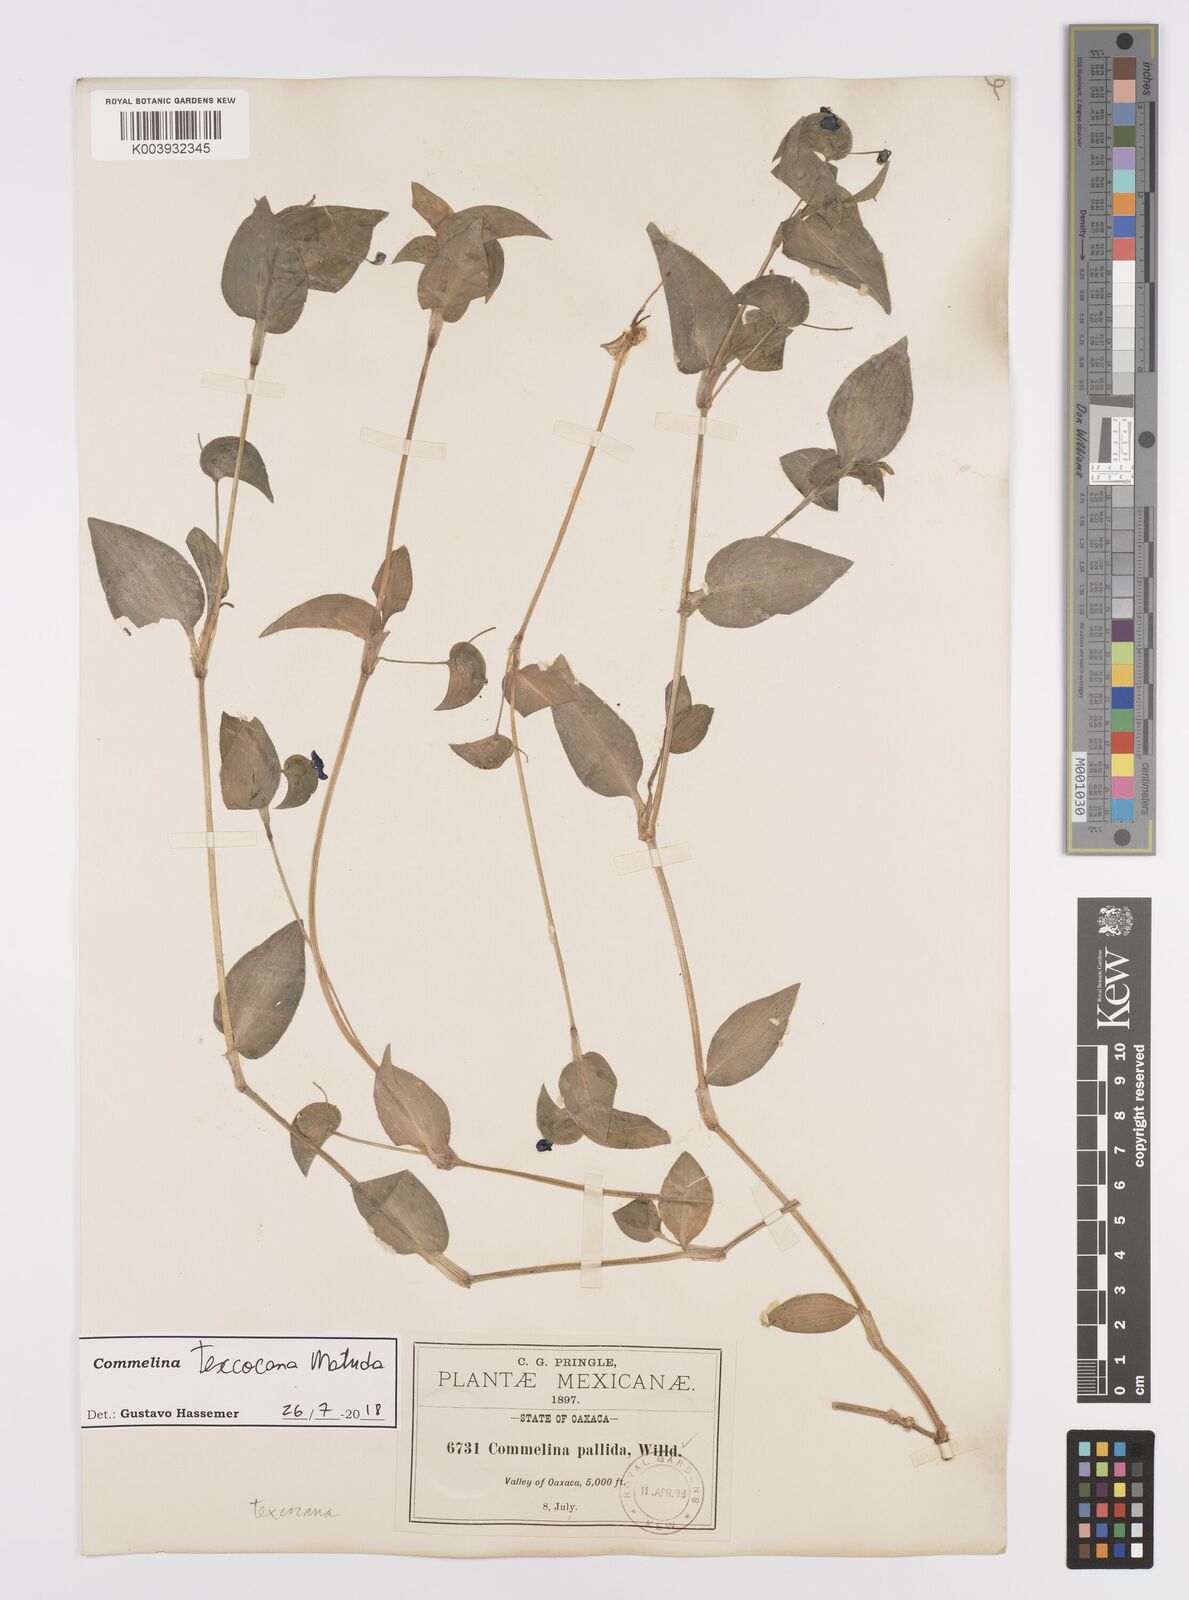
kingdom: Plantae
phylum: Tracheophyta
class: Liliopsida
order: Commelinales
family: Commelinaceae
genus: Commelina
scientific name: Commelina texcocana
